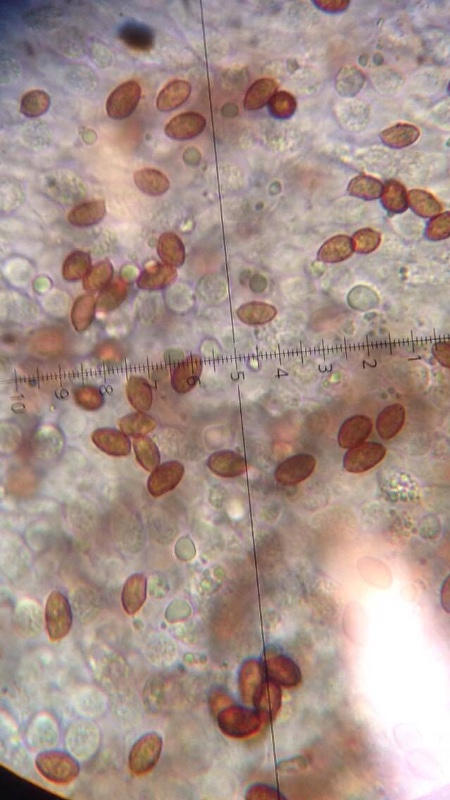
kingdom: Fungi
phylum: Basidiomycota
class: Agaricomycetes
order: Agaricales
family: Hymenogastraceae
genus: Galerina
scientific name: Galerina marginata
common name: randbæltet hjelmhat
